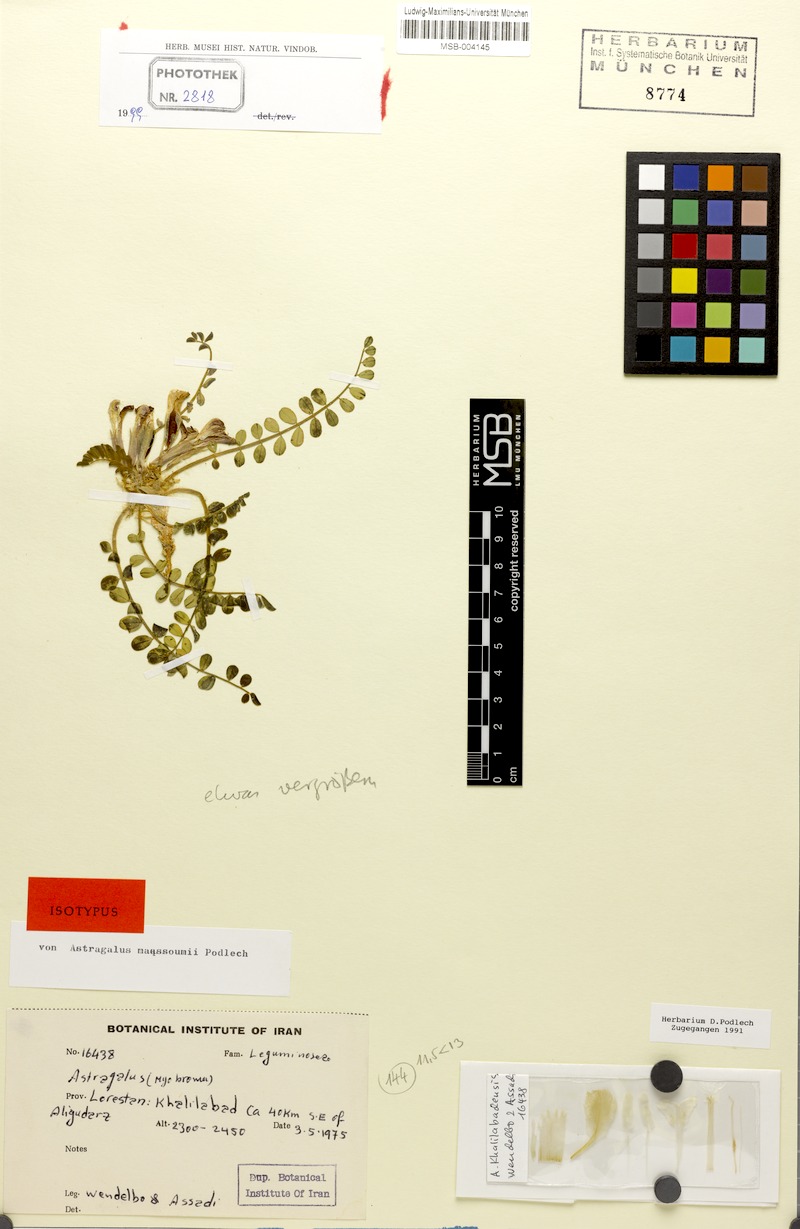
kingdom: Plantae
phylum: Tracheophyta
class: Magnoliopsida
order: Fabales
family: Fabaceae
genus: Astragalus
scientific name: Astragalus maassoumii
